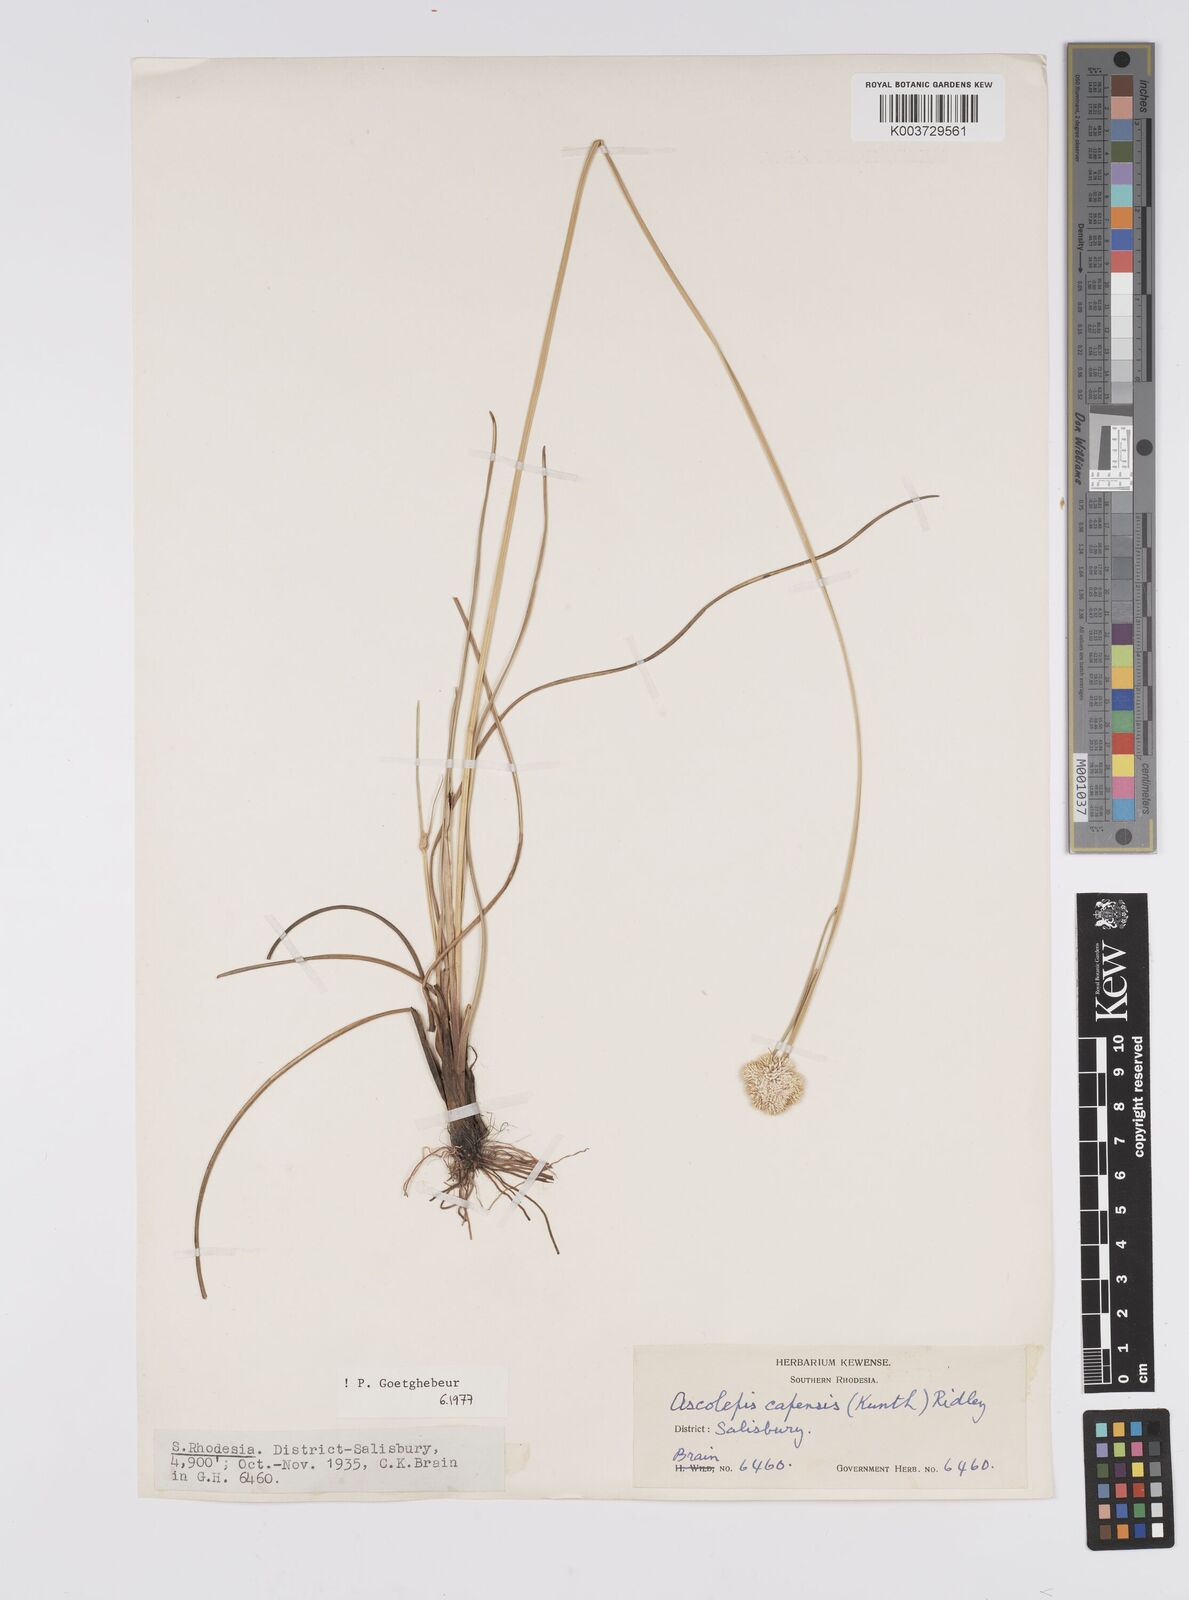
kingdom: Plantae
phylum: Tracheophyta
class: Liliopsida
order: Poales
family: Cyperaceae
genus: Cyperus
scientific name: Cyperus
